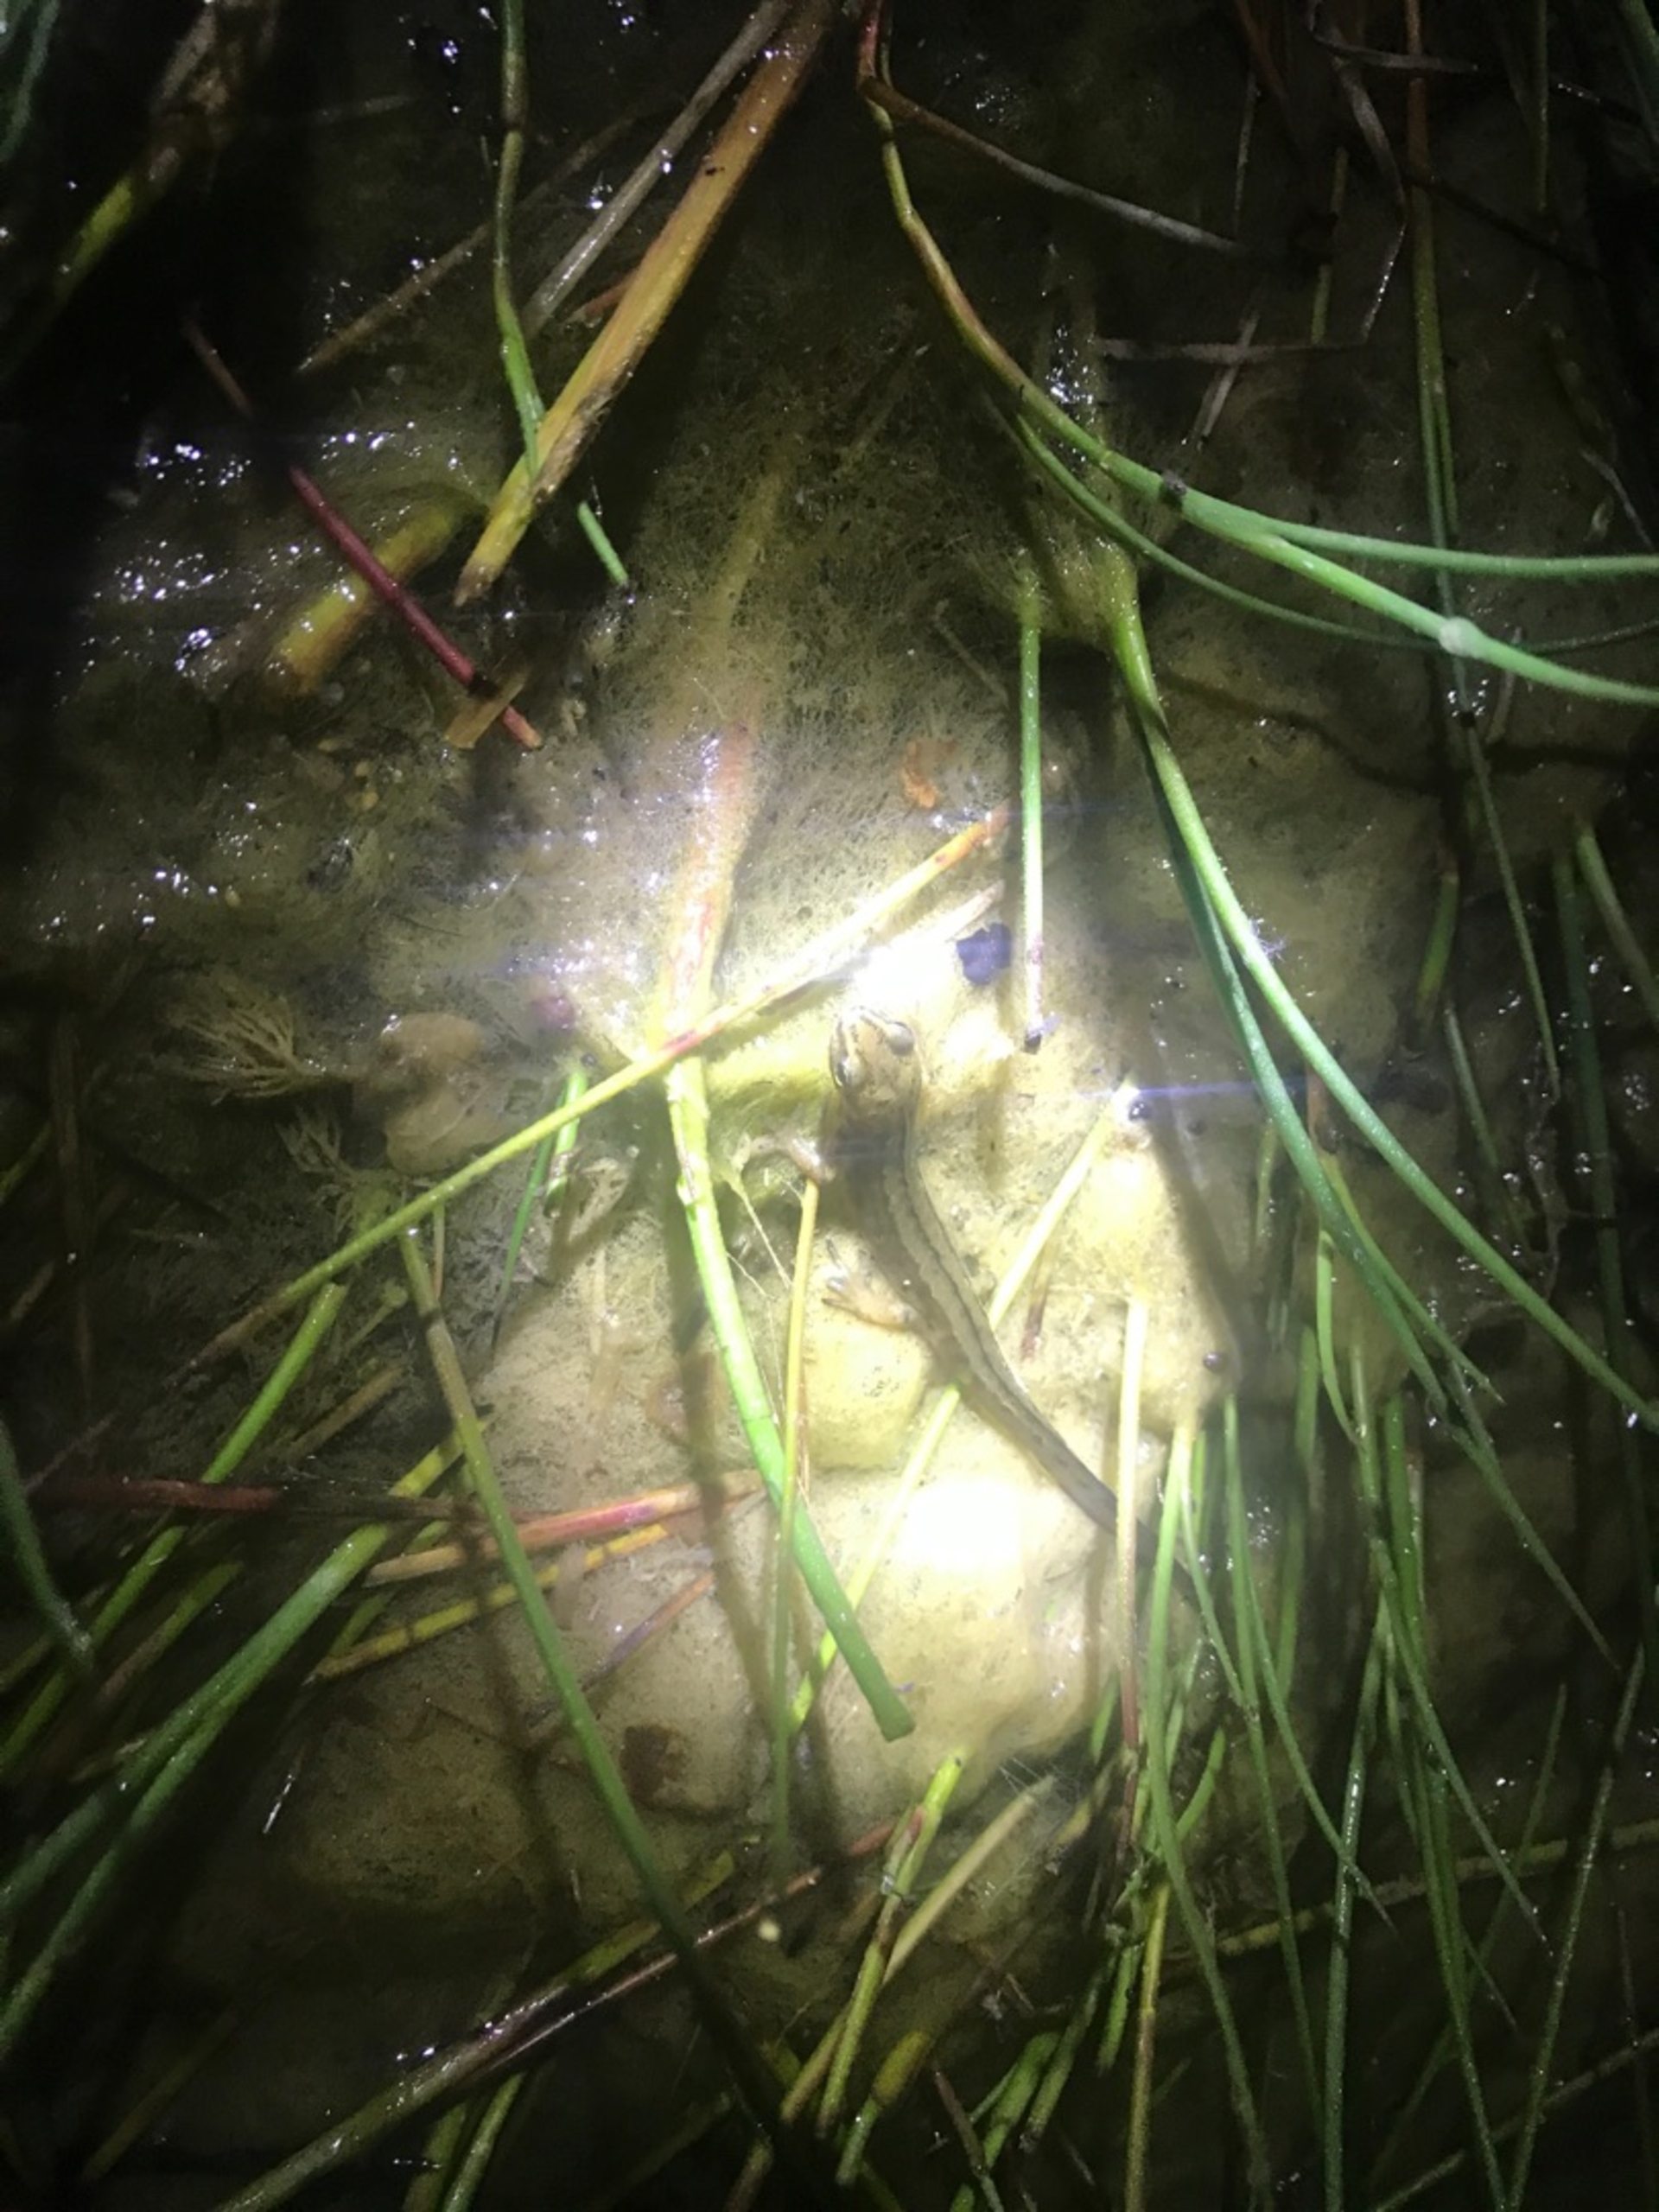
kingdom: Animalia
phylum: Chordata
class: Amphibia
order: Caudata
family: Salamandridae
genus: Lissotriton
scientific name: Lissotriton vulgaris
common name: Lille vandsalamander
